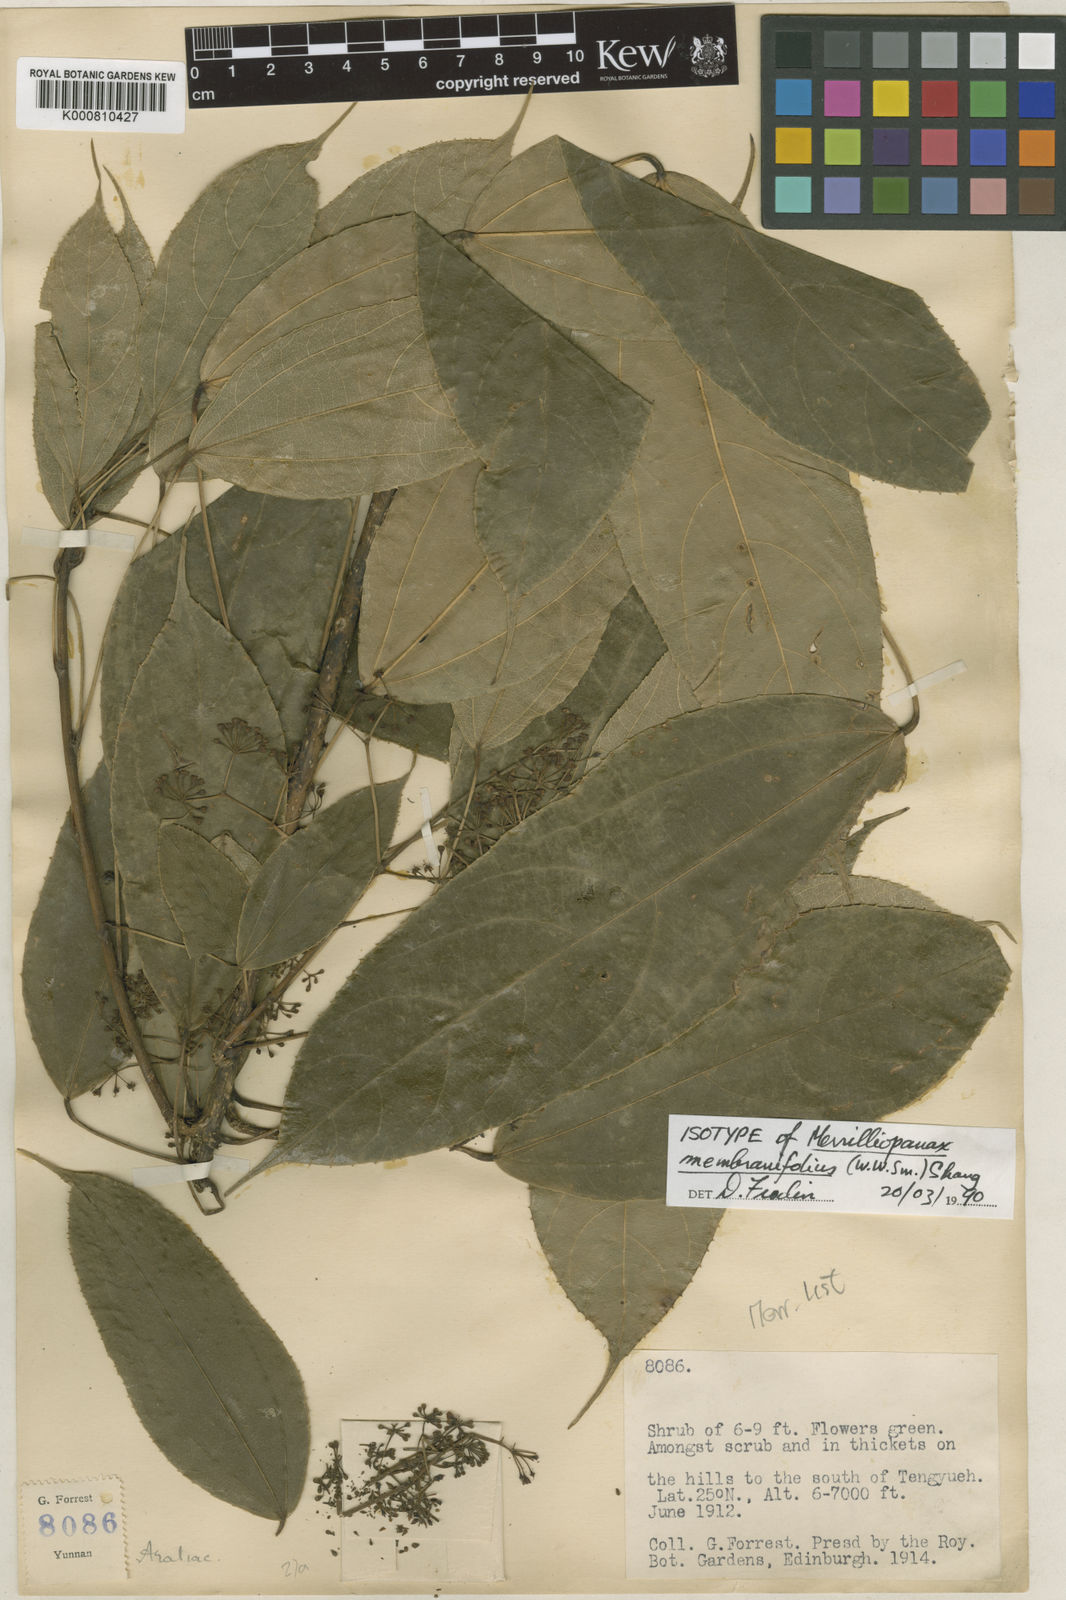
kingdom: Plantae
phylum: Tracheophyta
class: Magnoliopsida
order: Apiales
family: Araliaceae
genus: Merrilliopanax
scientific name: Merrilliopanax membranifolius
